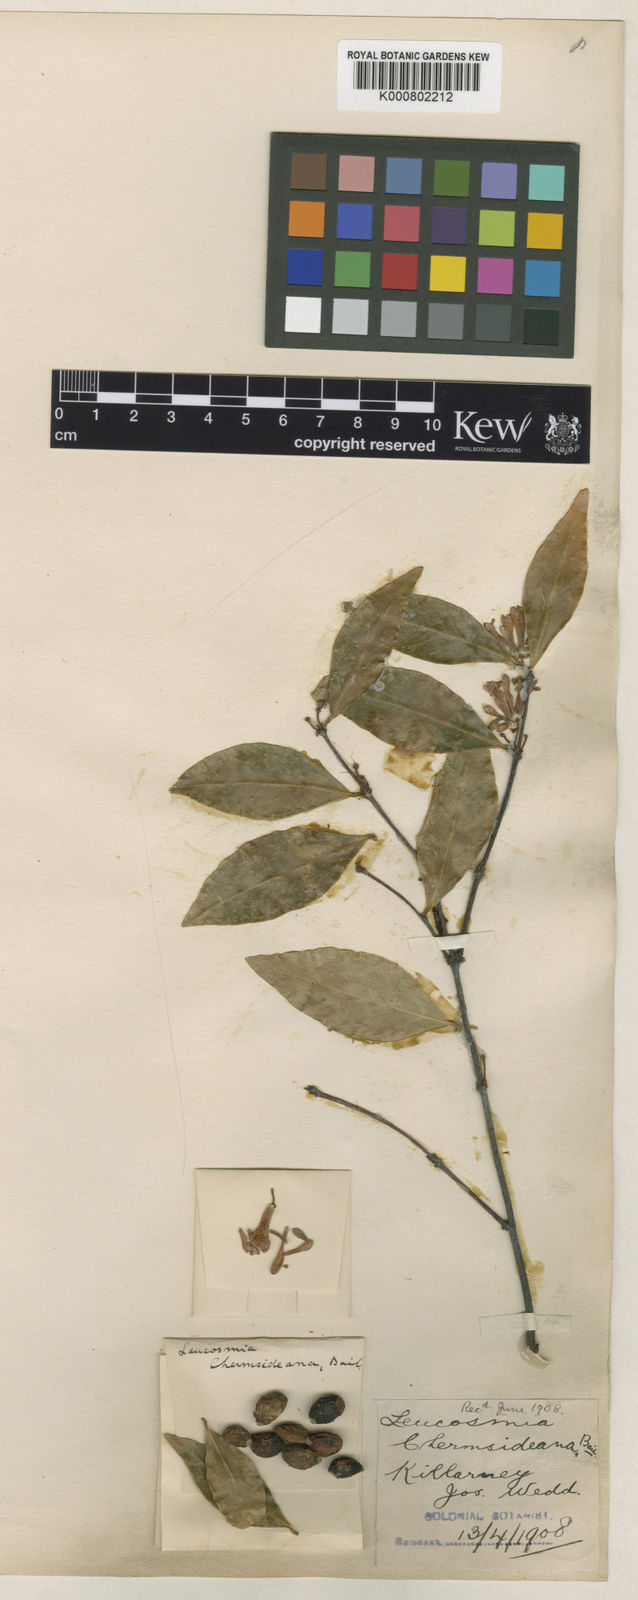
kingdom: Plantae
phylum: Tracheophyta
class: Magnoliopsida
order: Malvales
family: Thymelaeaceae
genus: Phaleria
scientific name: Phaleria
